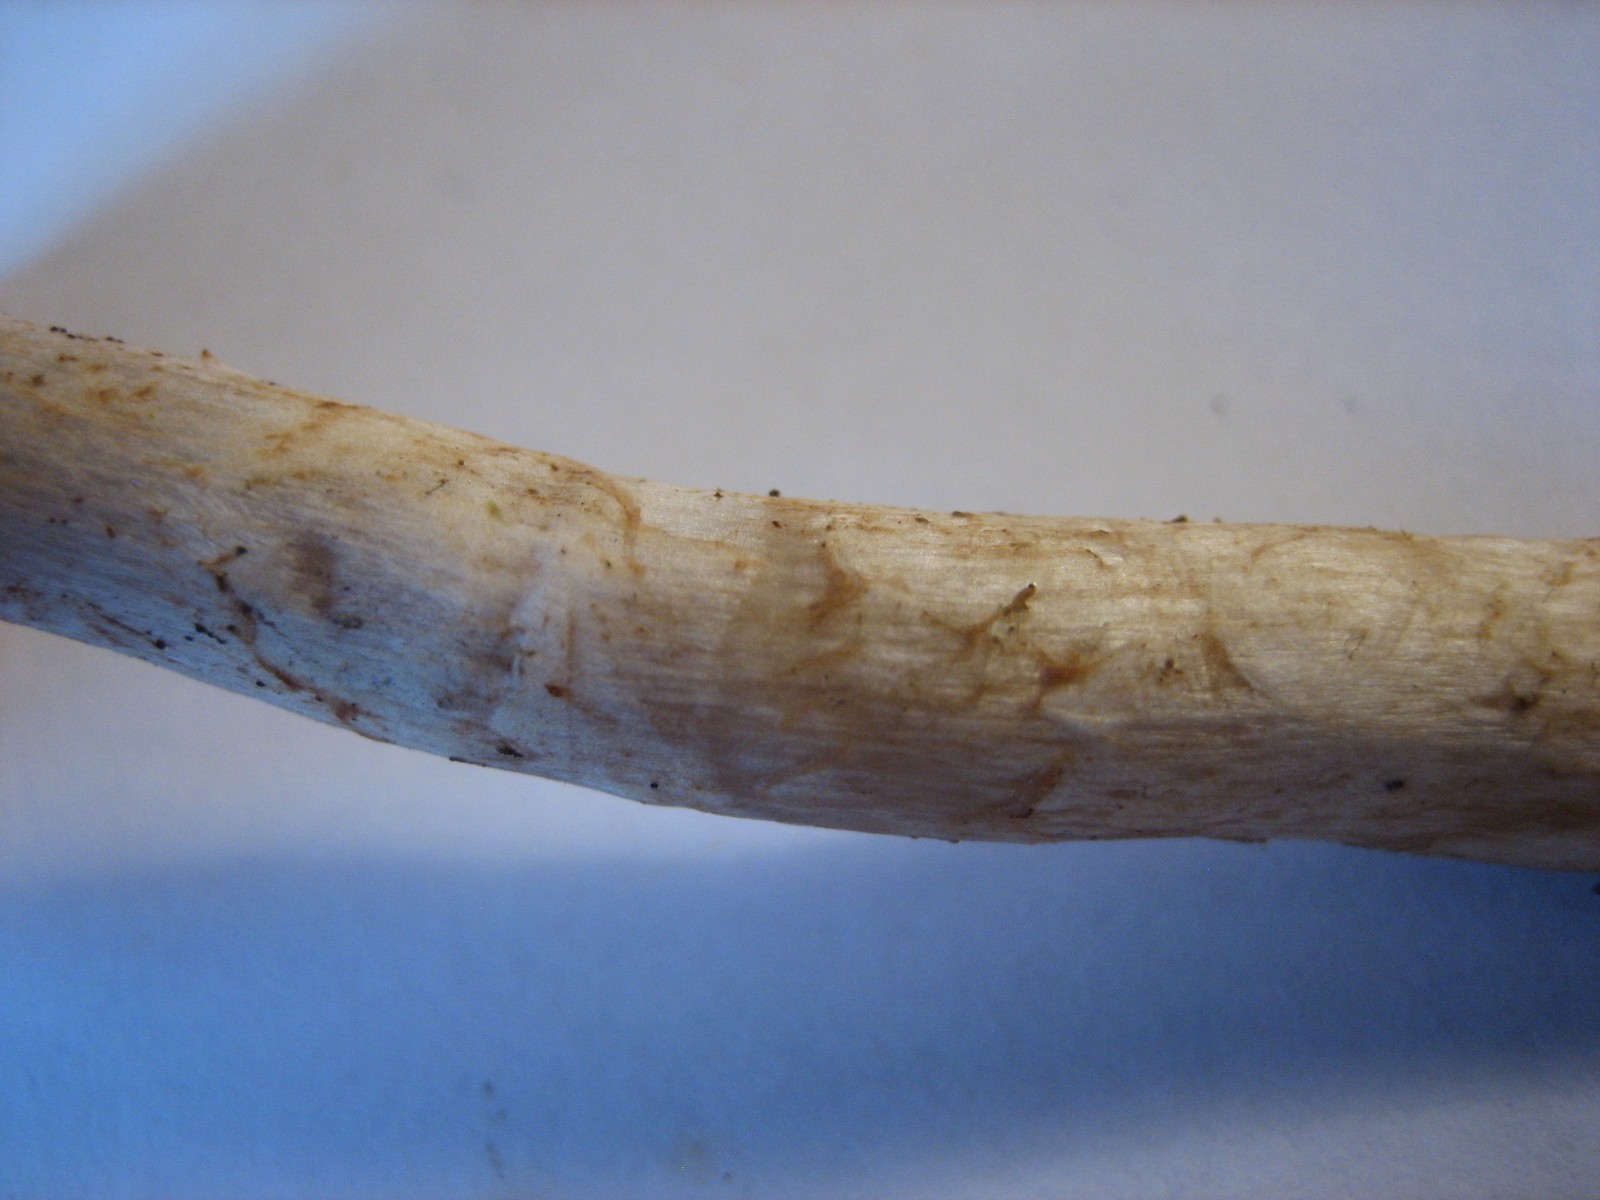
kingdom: Fungi
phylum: Basidiomycota
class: Agaricomycetes
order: Agaricales
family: Cortinariaceae
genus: Cortinarius
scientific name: Cortinarius anomalus
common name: Variable webcap
